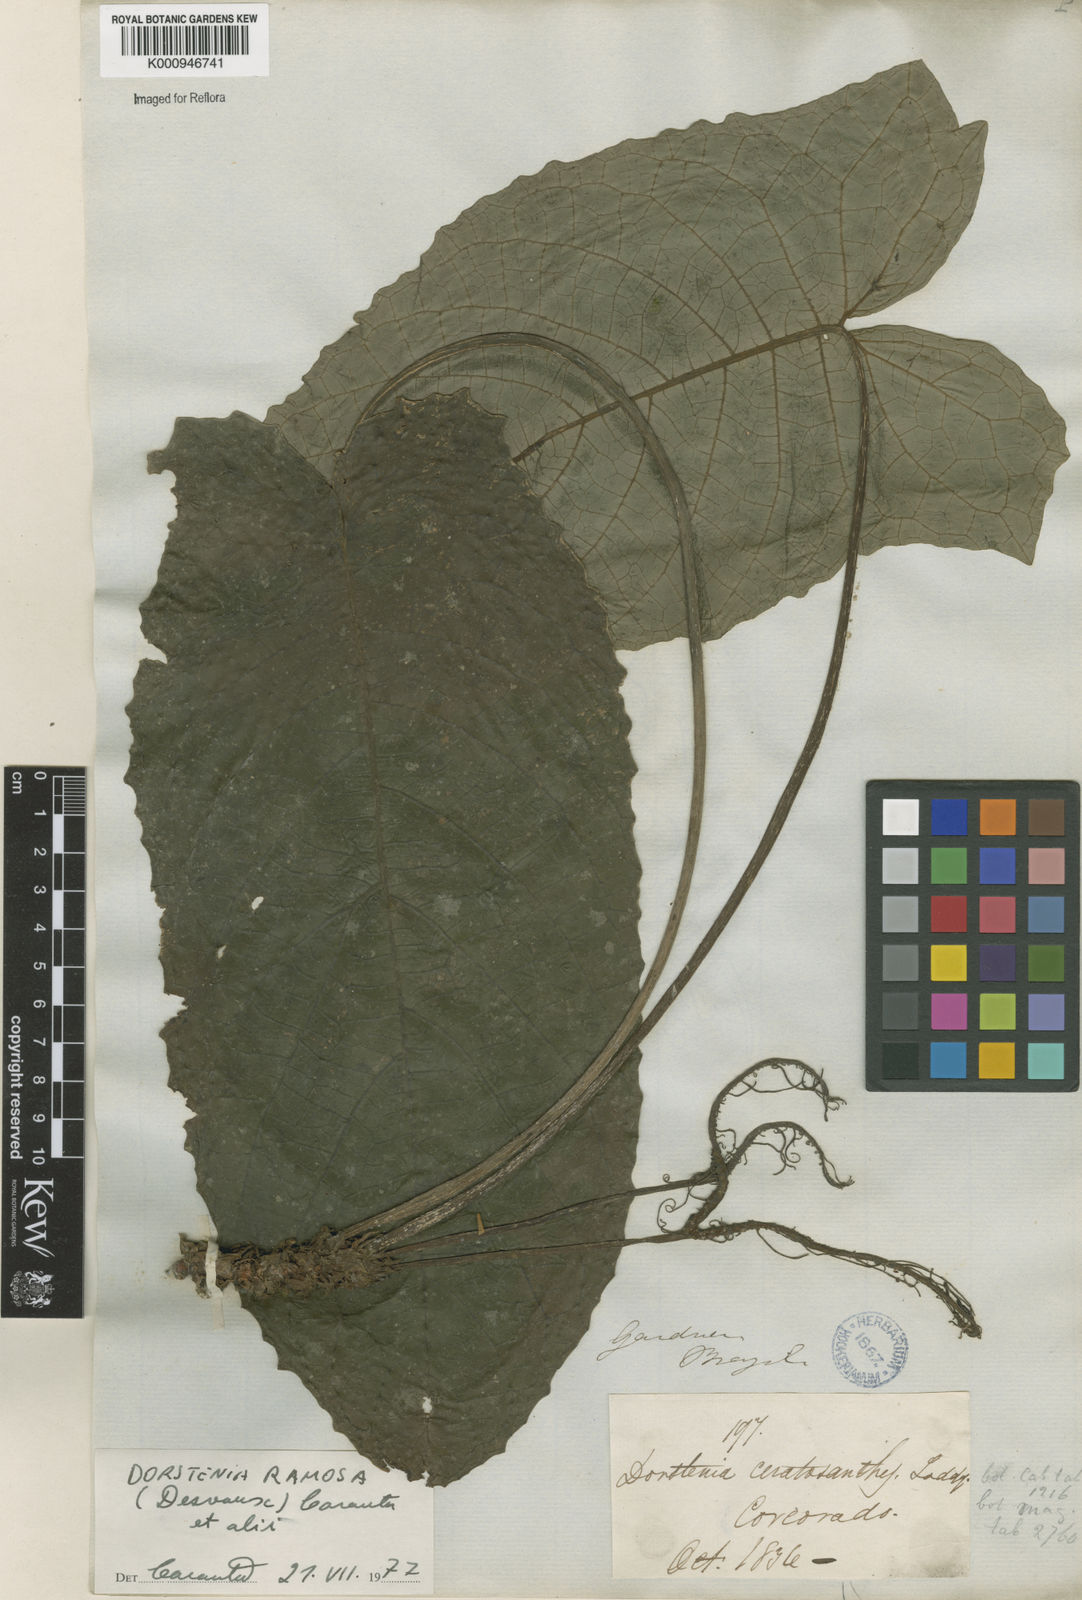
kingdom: Plantae
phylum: Tracheophyta
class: Magnoliopsida
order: Rosales
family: Moraceae
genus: Dorstenia
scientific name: Dorstenia ramosa
